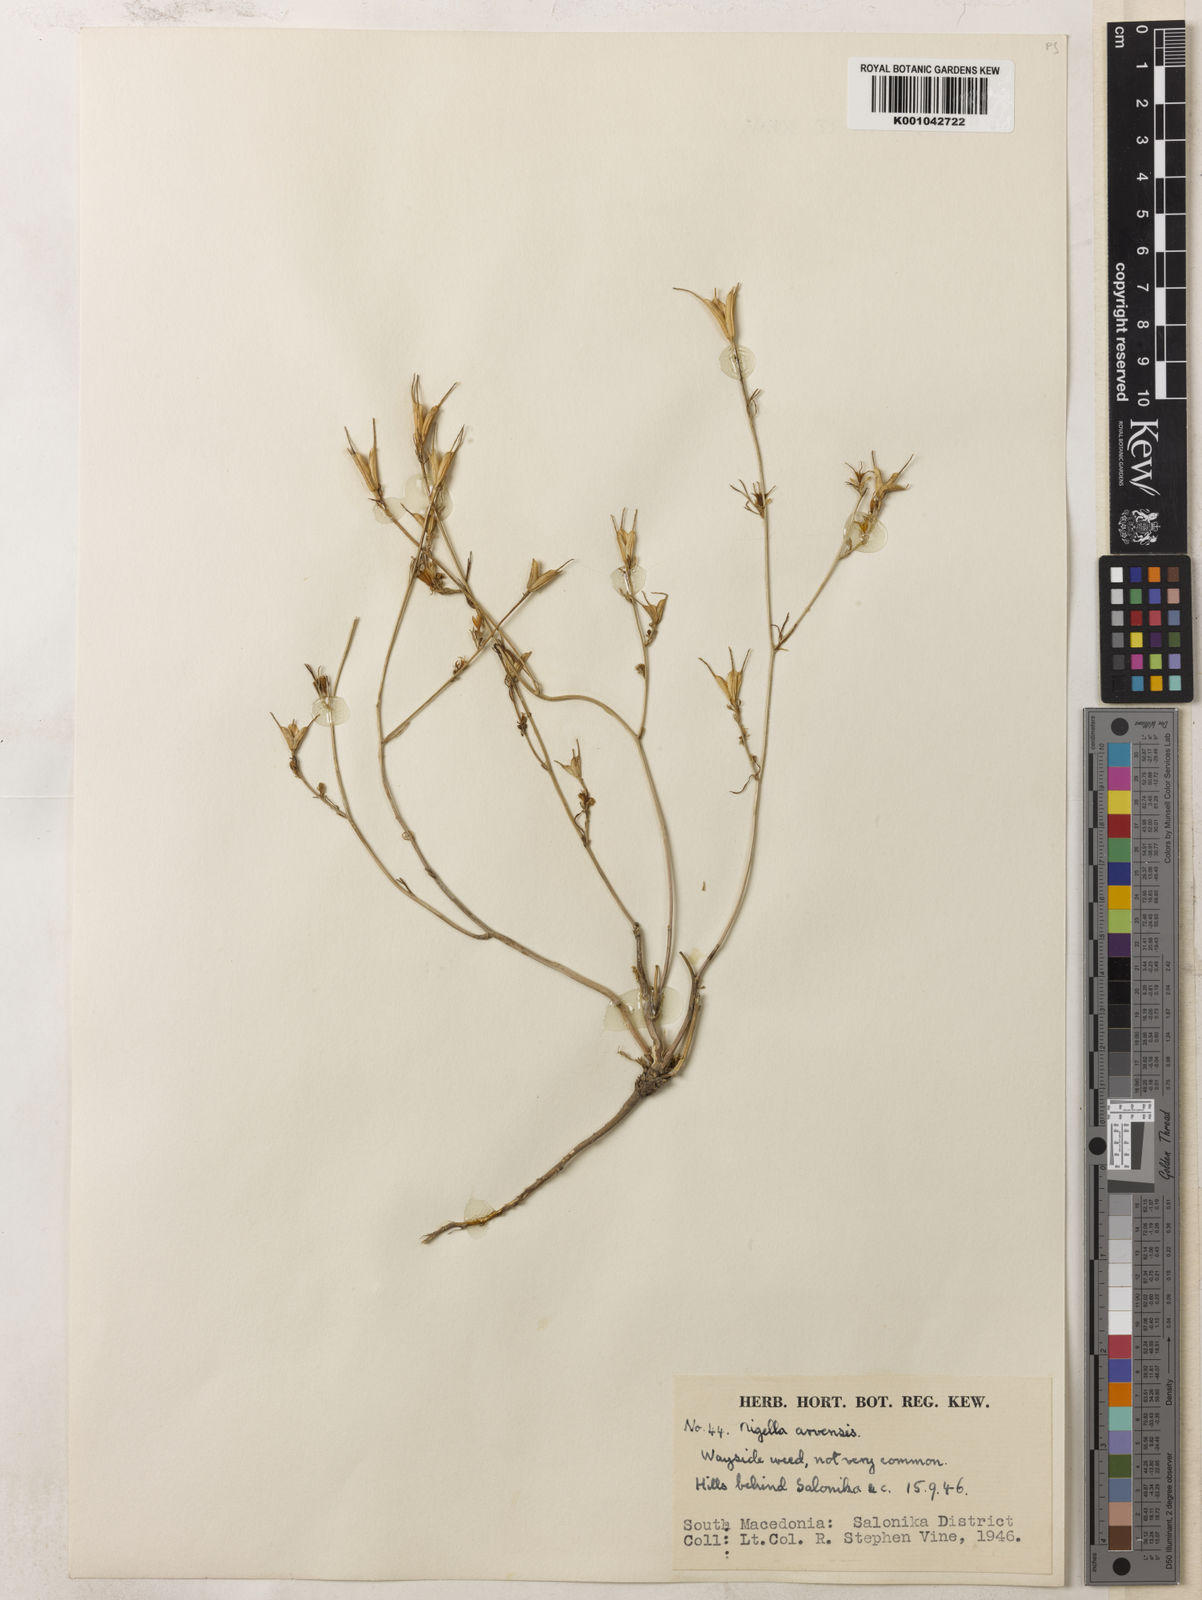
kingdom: Plantae
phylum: Tracheophyta
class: Magnoliopsida
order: Ranunculales
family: Ranunculaceae
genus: Nigella
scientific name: Nigella arvensis
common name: Wild fennel-flower
